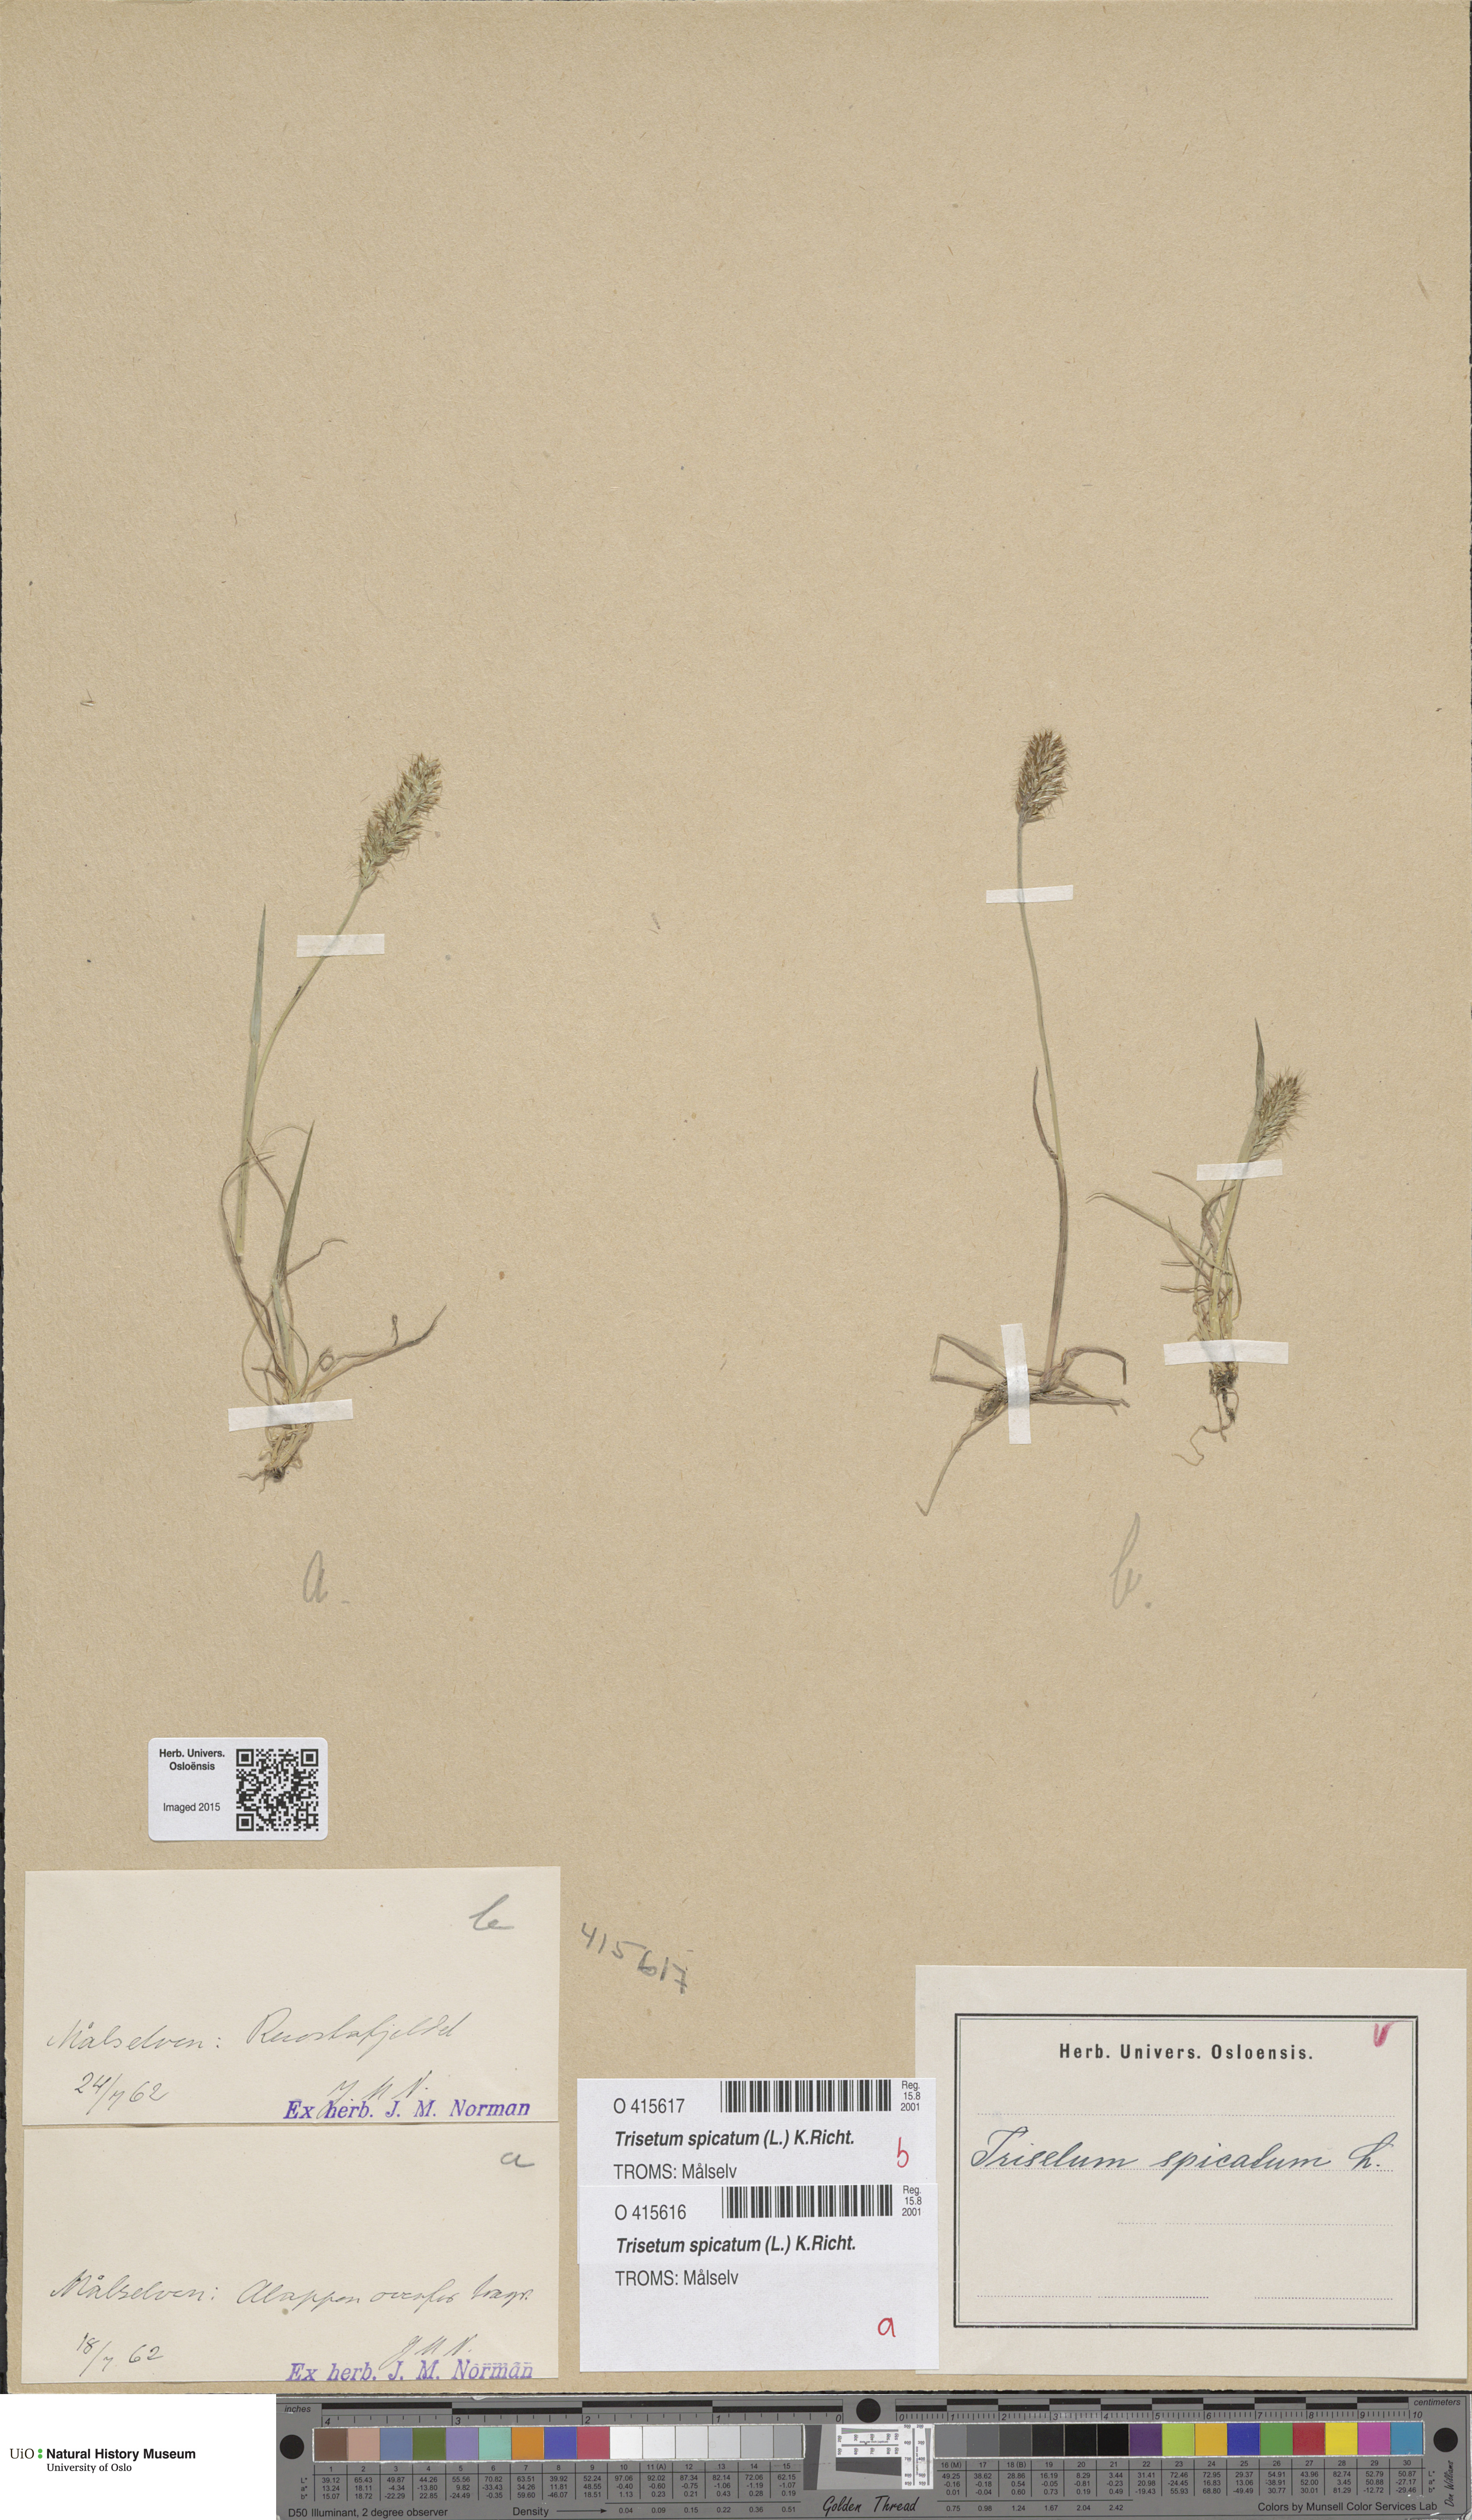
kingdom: Plantae
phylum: Tracheophyta
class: Liliopsida
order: Poales
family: Poaceae
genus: Koeleria
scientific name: Koeleria spicata
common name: Mountain trisetum
